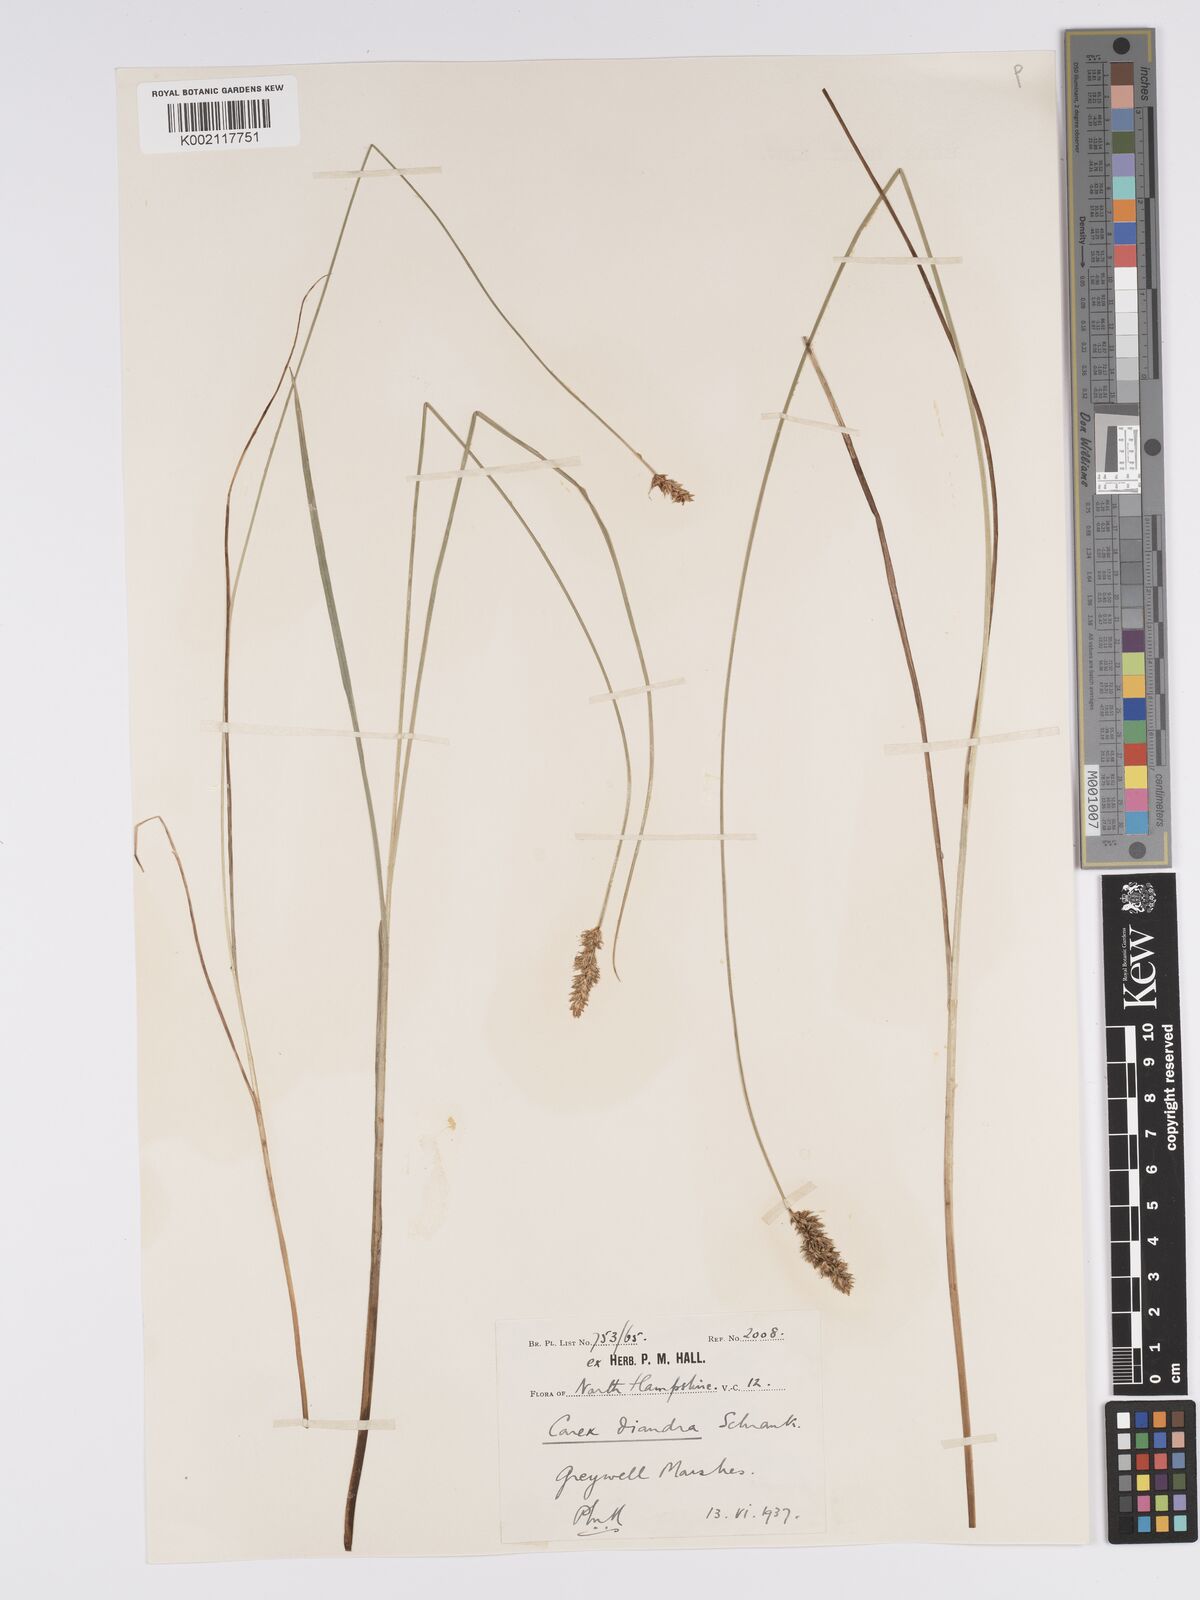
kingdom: Plantae
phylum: Tracheophyta
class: Liliopsida
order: Poales
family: Cyperaceae
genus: Carex
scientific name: Carex diandra
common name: Lesser tussock-sedge
